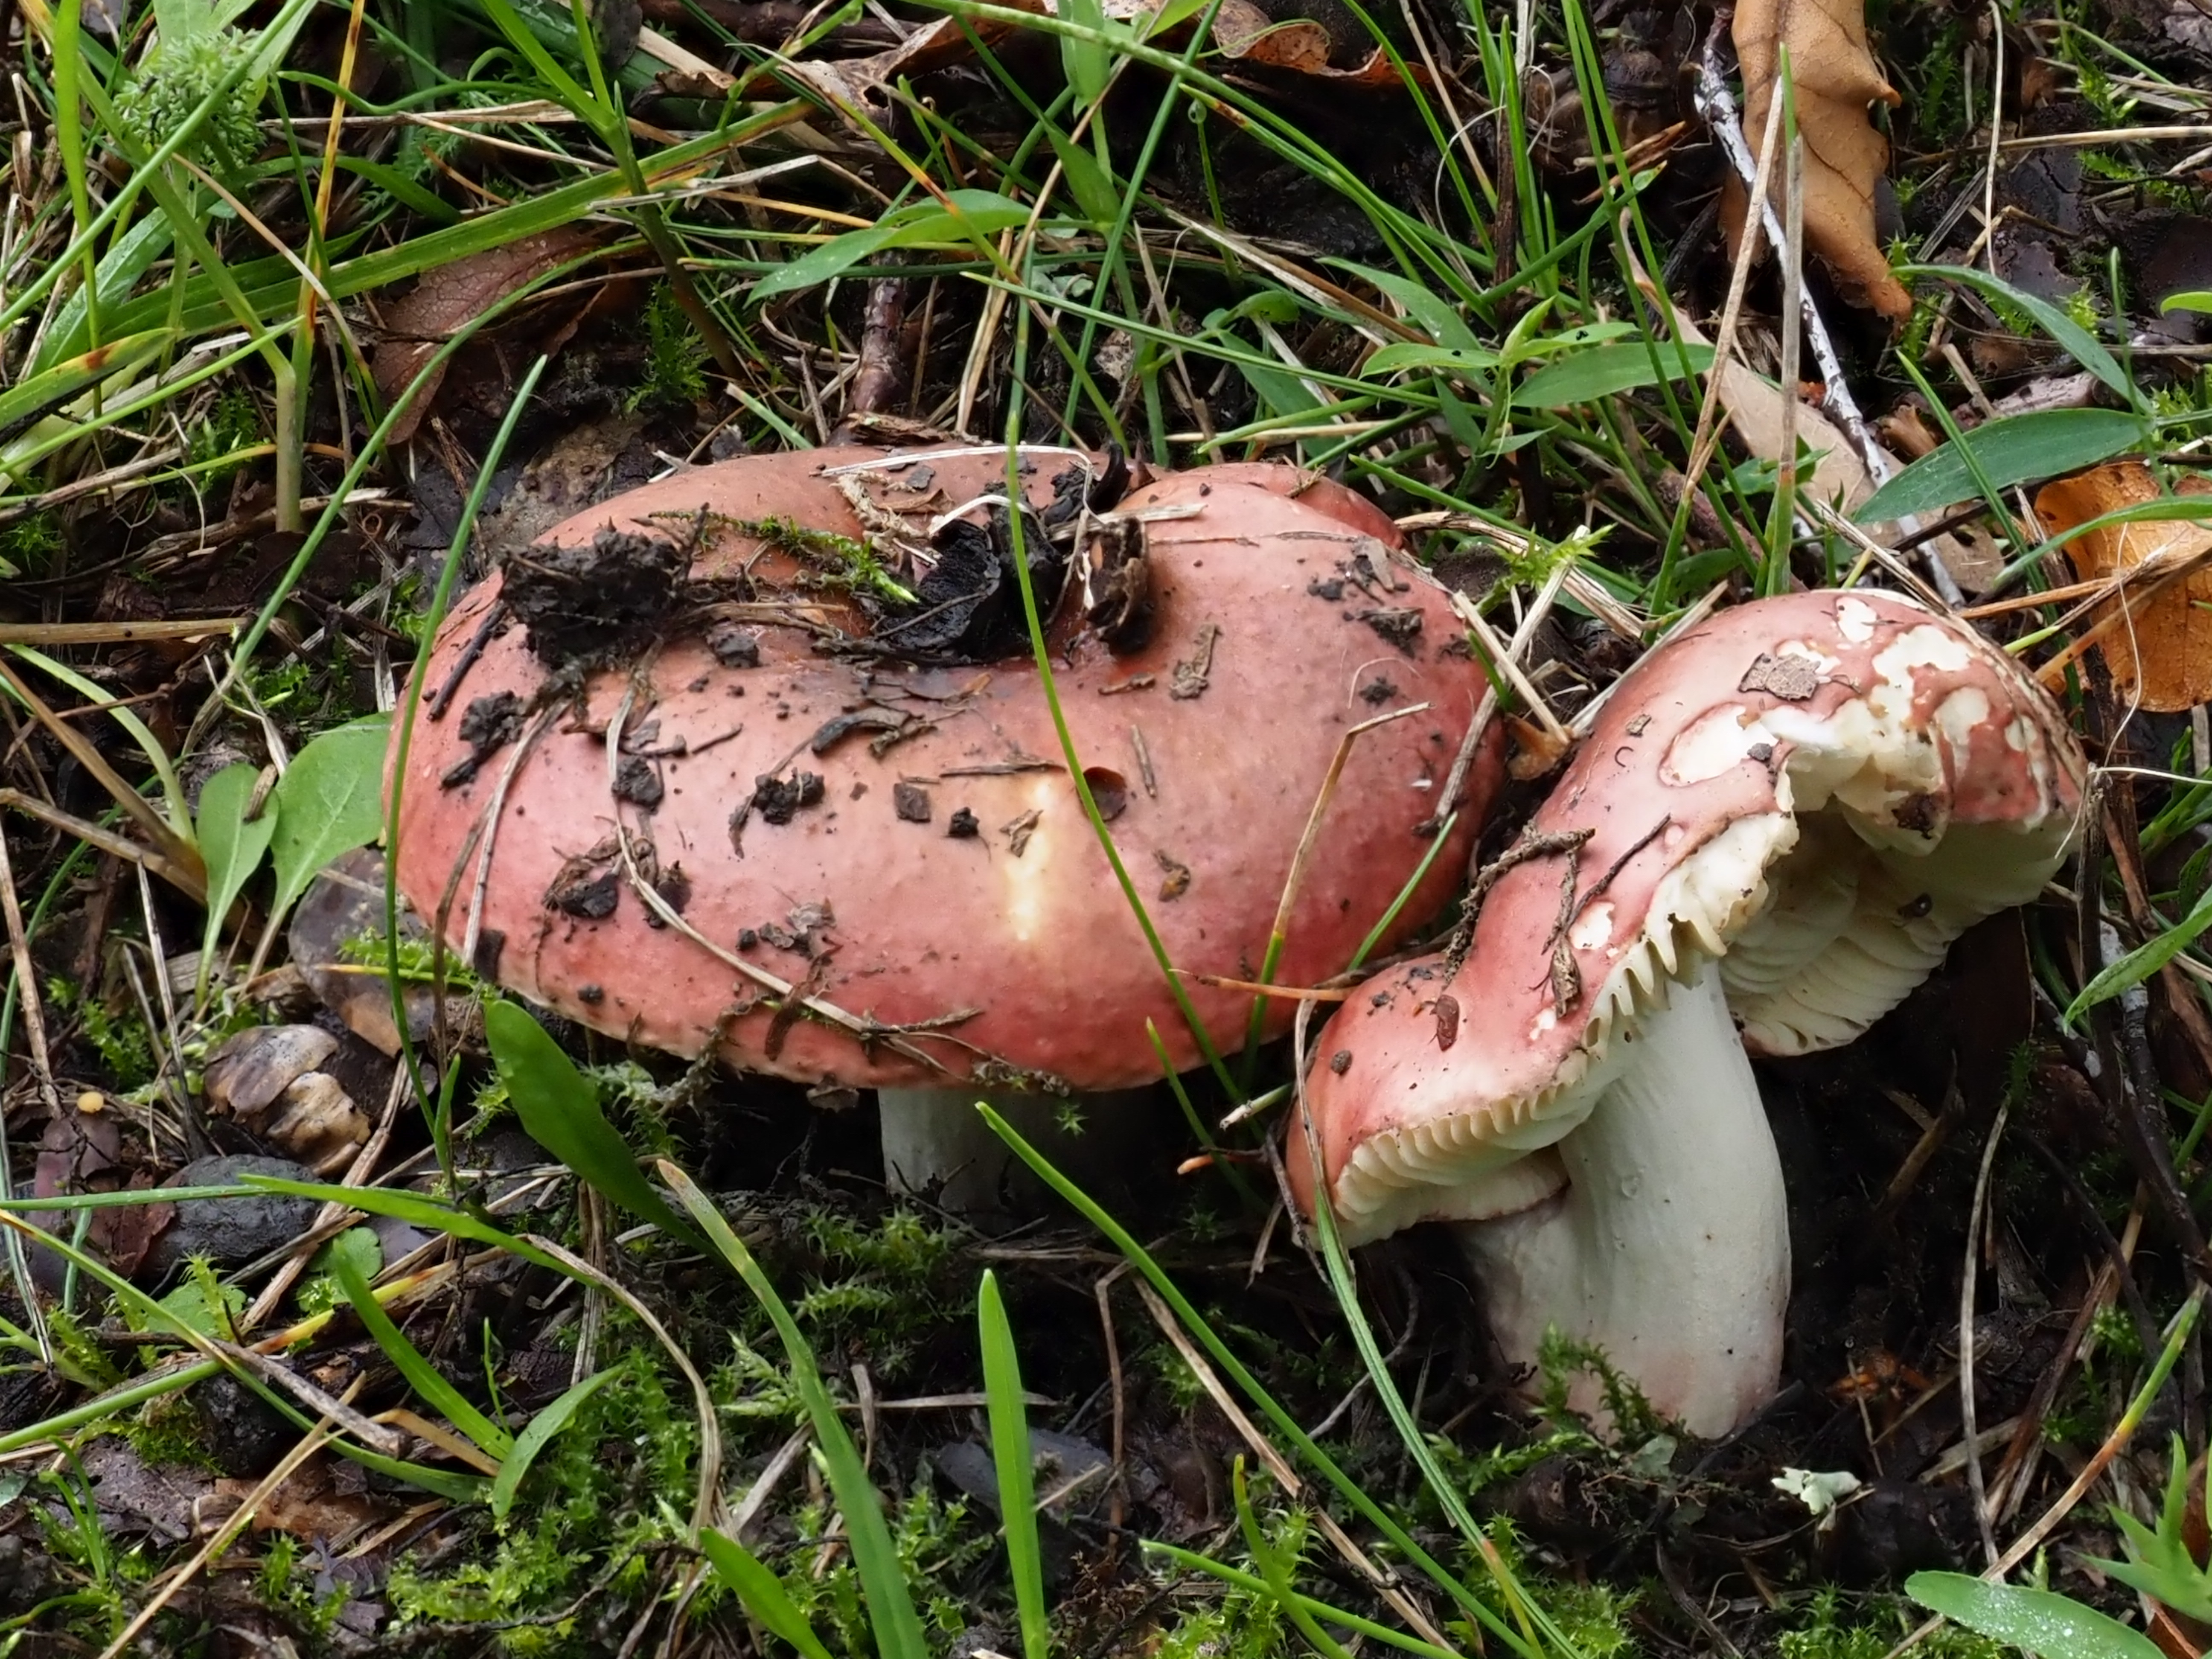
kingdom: Fungi
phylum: Basidiomycota
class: Agaricomycetes
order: Russulales
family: Russulaceae
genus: Russula
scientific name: Russula graveolens
